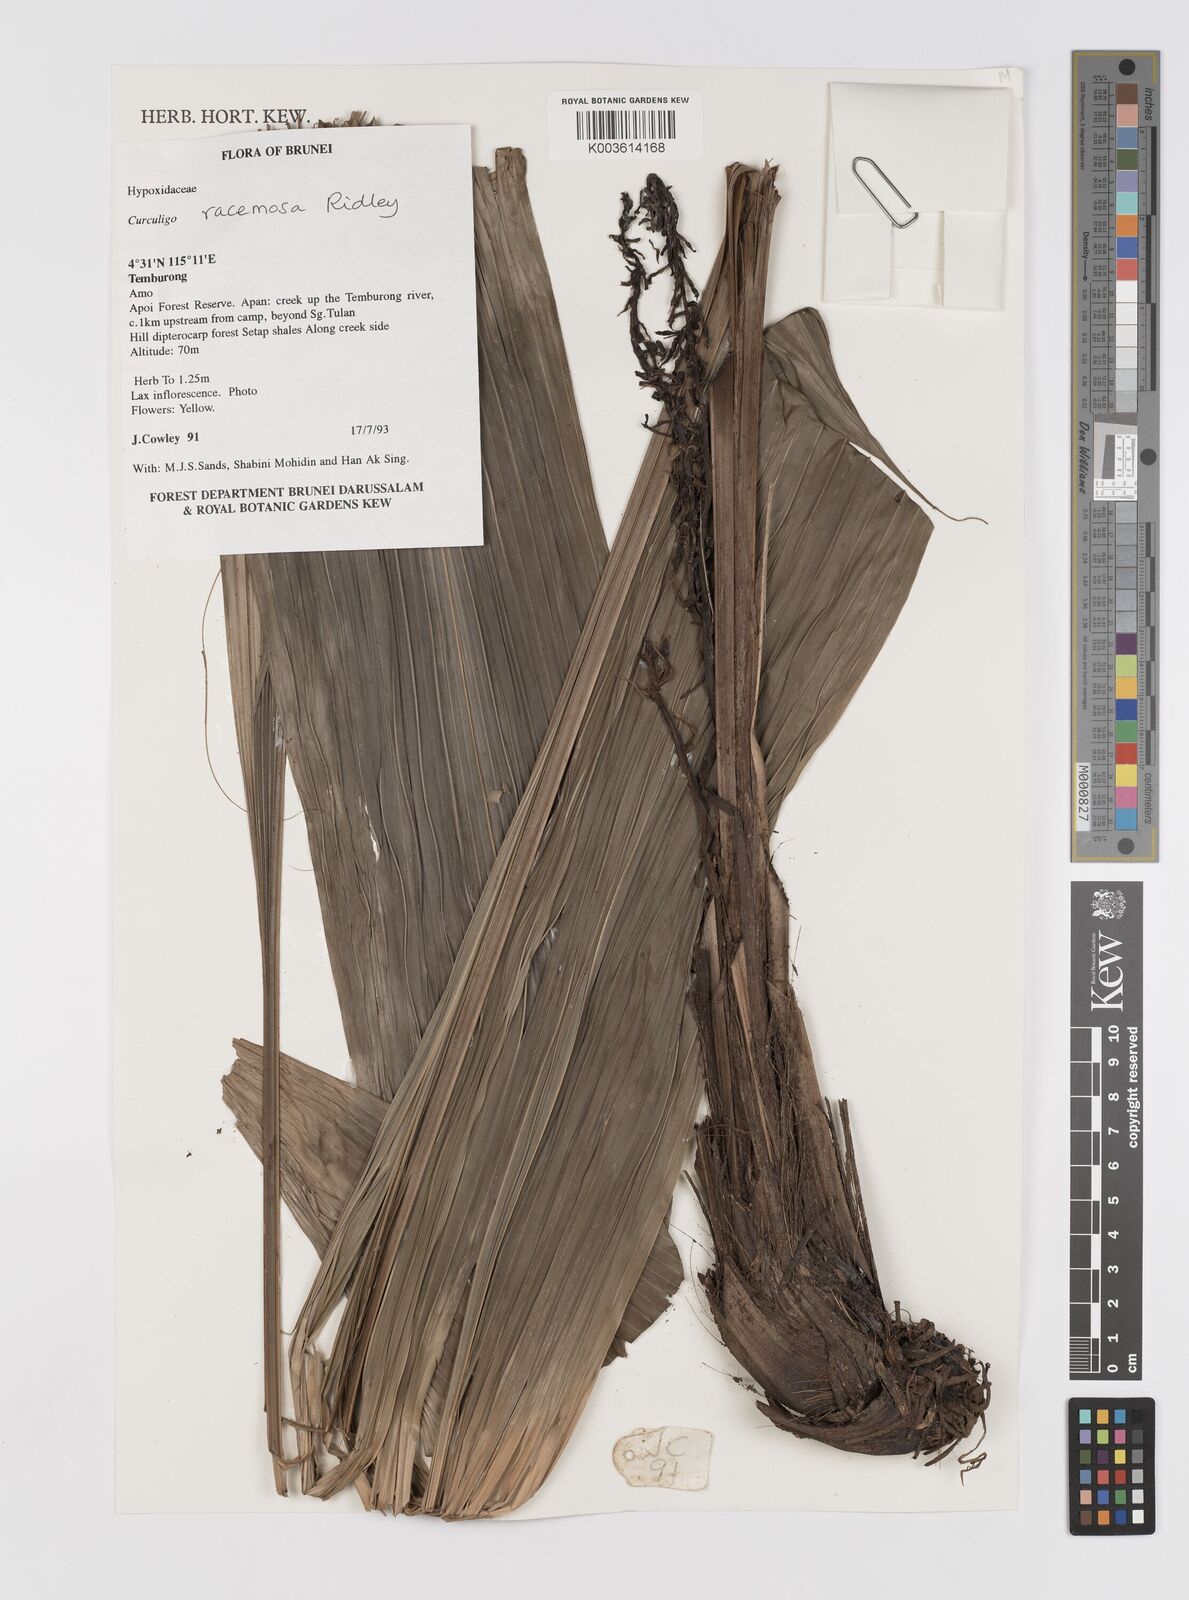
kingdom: Plantae
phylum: Tracheophyta
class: Liliopsida
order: Asparagales
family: Hypoxidaceae
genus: Curculigo
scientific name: Curculigo racemosa
